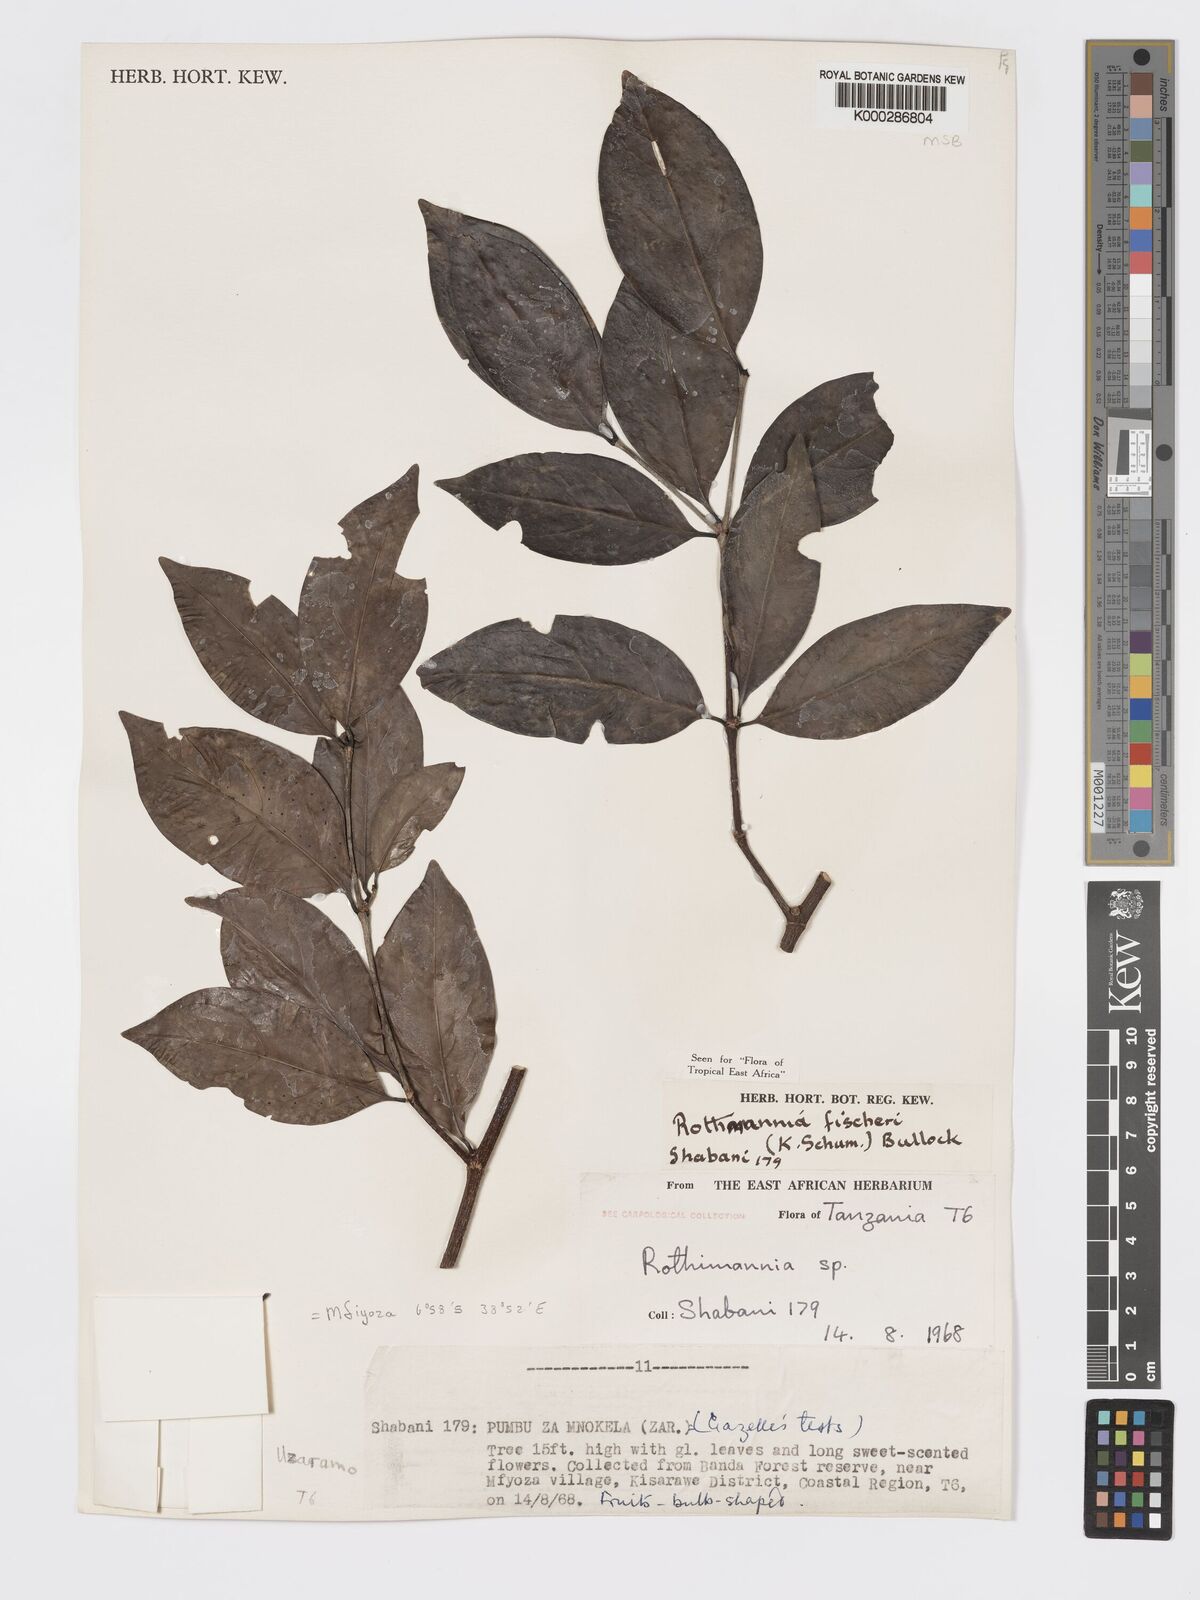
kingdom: Plantae
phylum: Tracheophyta
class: Magnoliopsida
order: Gentianales
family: Rubiaceae
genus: Rothmannia
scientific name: Rothmannia ravae
